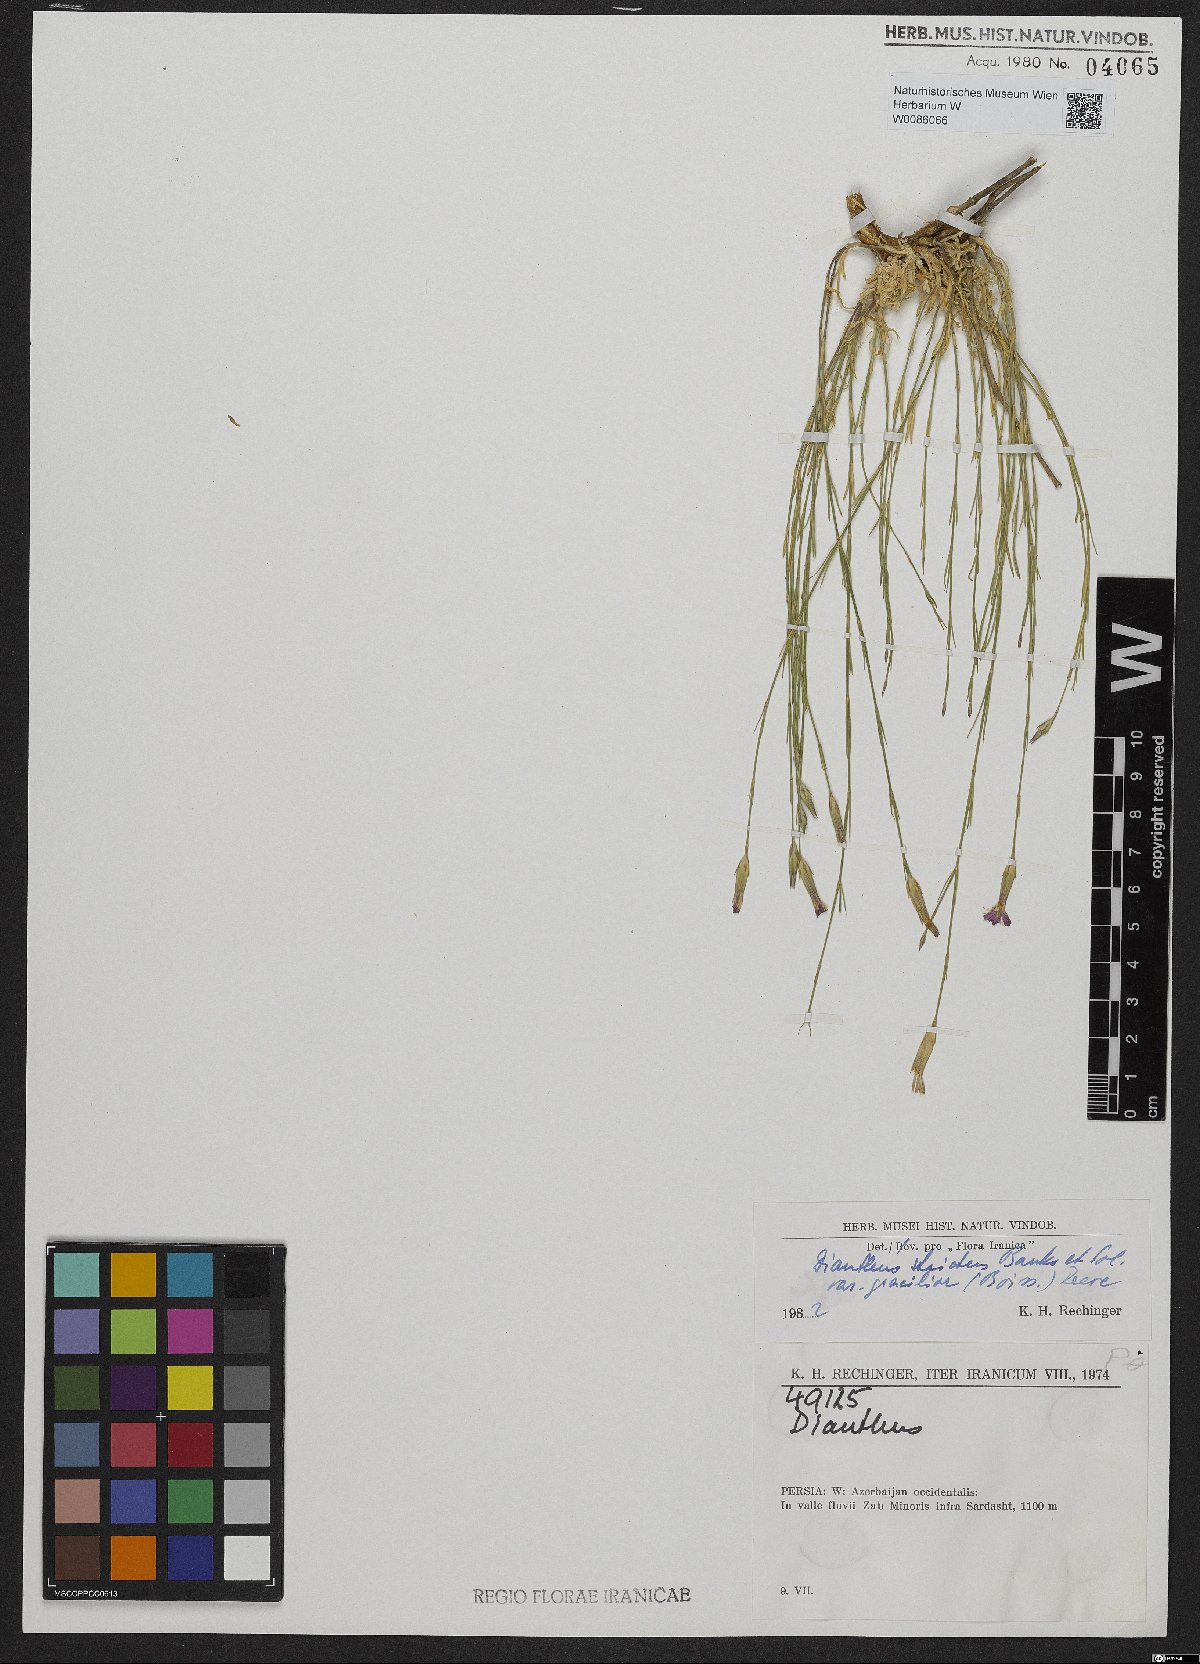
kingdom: Plantae
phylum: Tracheophyta
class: Magnoliopsida
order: Caryophyllales
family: Caryophyllaceae
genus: Dianthus
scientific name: Dianthus strictus
